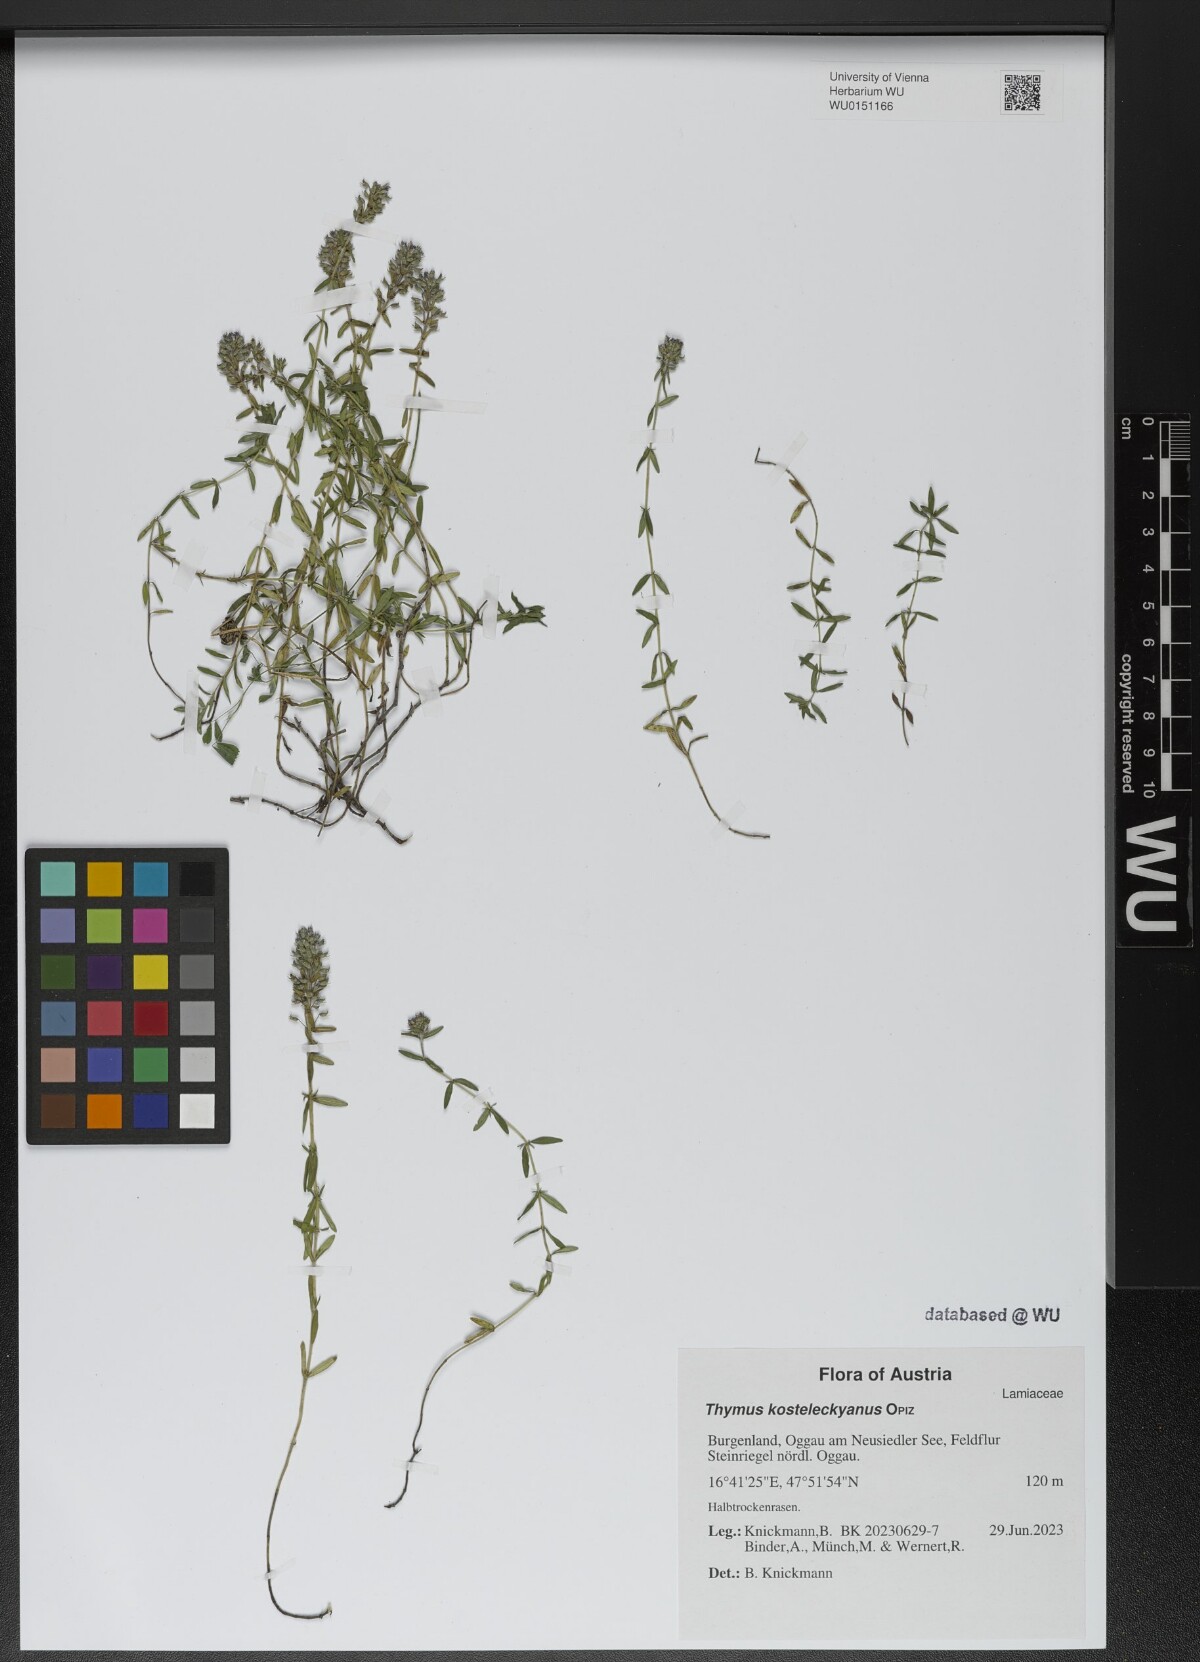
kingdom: Plantae
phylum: Tracheophyta
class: Magnoliopsida
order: Lamiales
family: Lamiaceae
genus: Thymus
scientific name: Thymus kosteleckyanus
